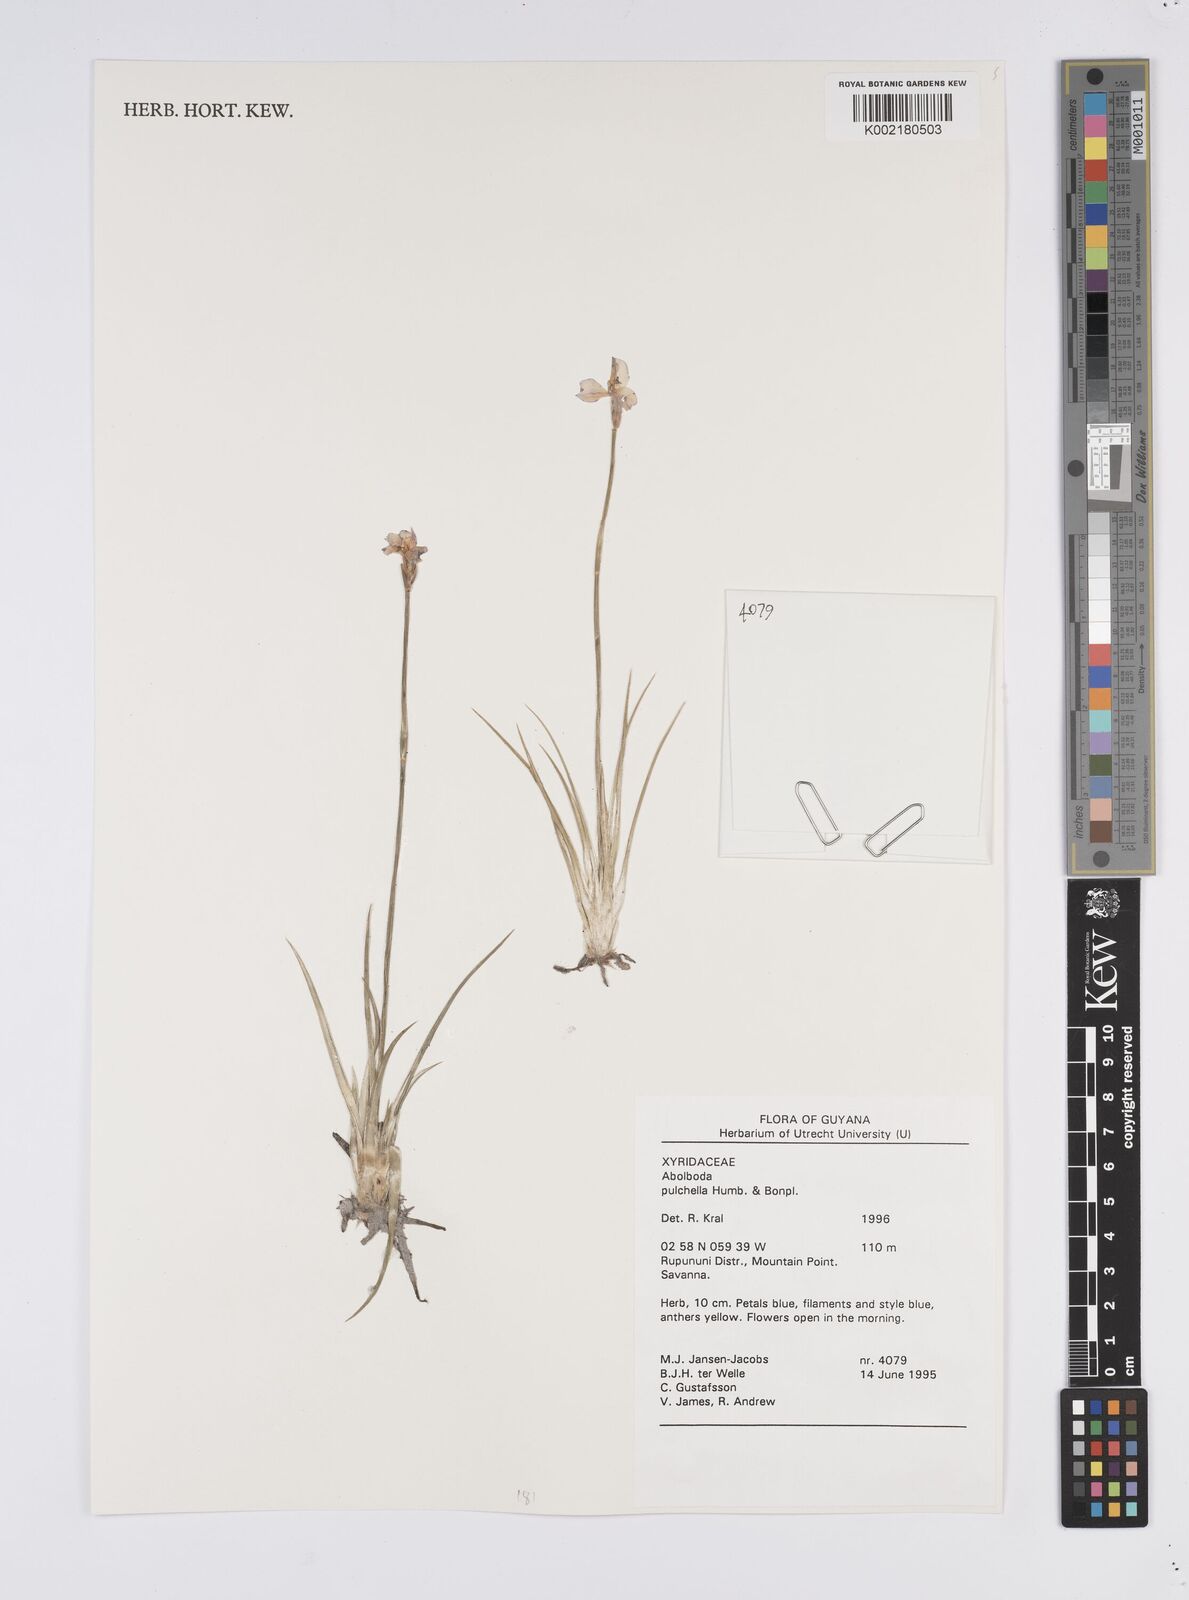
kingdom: Plantae
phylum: Tracheophyta
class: Liliopsida
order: Poales
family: Xyridaceae
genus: Abolboda
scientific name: Abolboda pulchella
